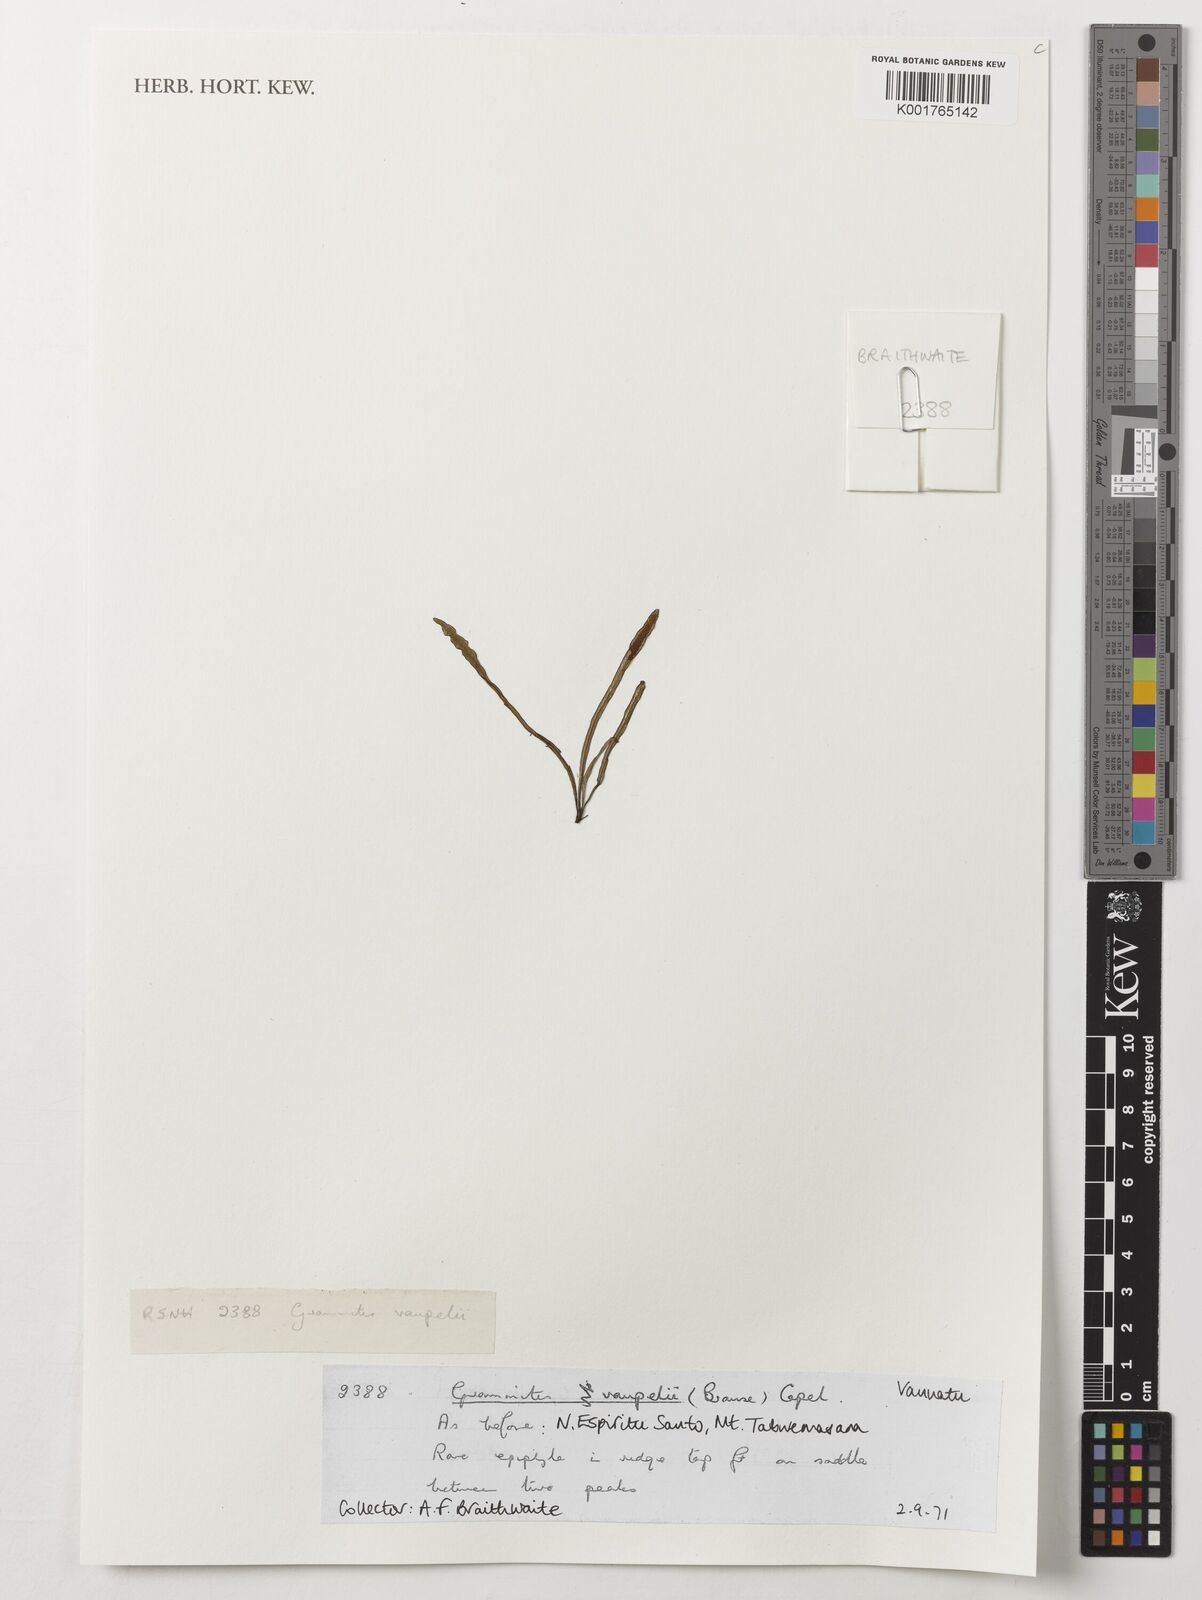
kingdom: Plantae
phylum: Tracheophyta
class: Polypodiopsida
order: Polypodiales
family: Polypodiaceae
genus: Grammitis
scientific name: Grammitis vaupelii
